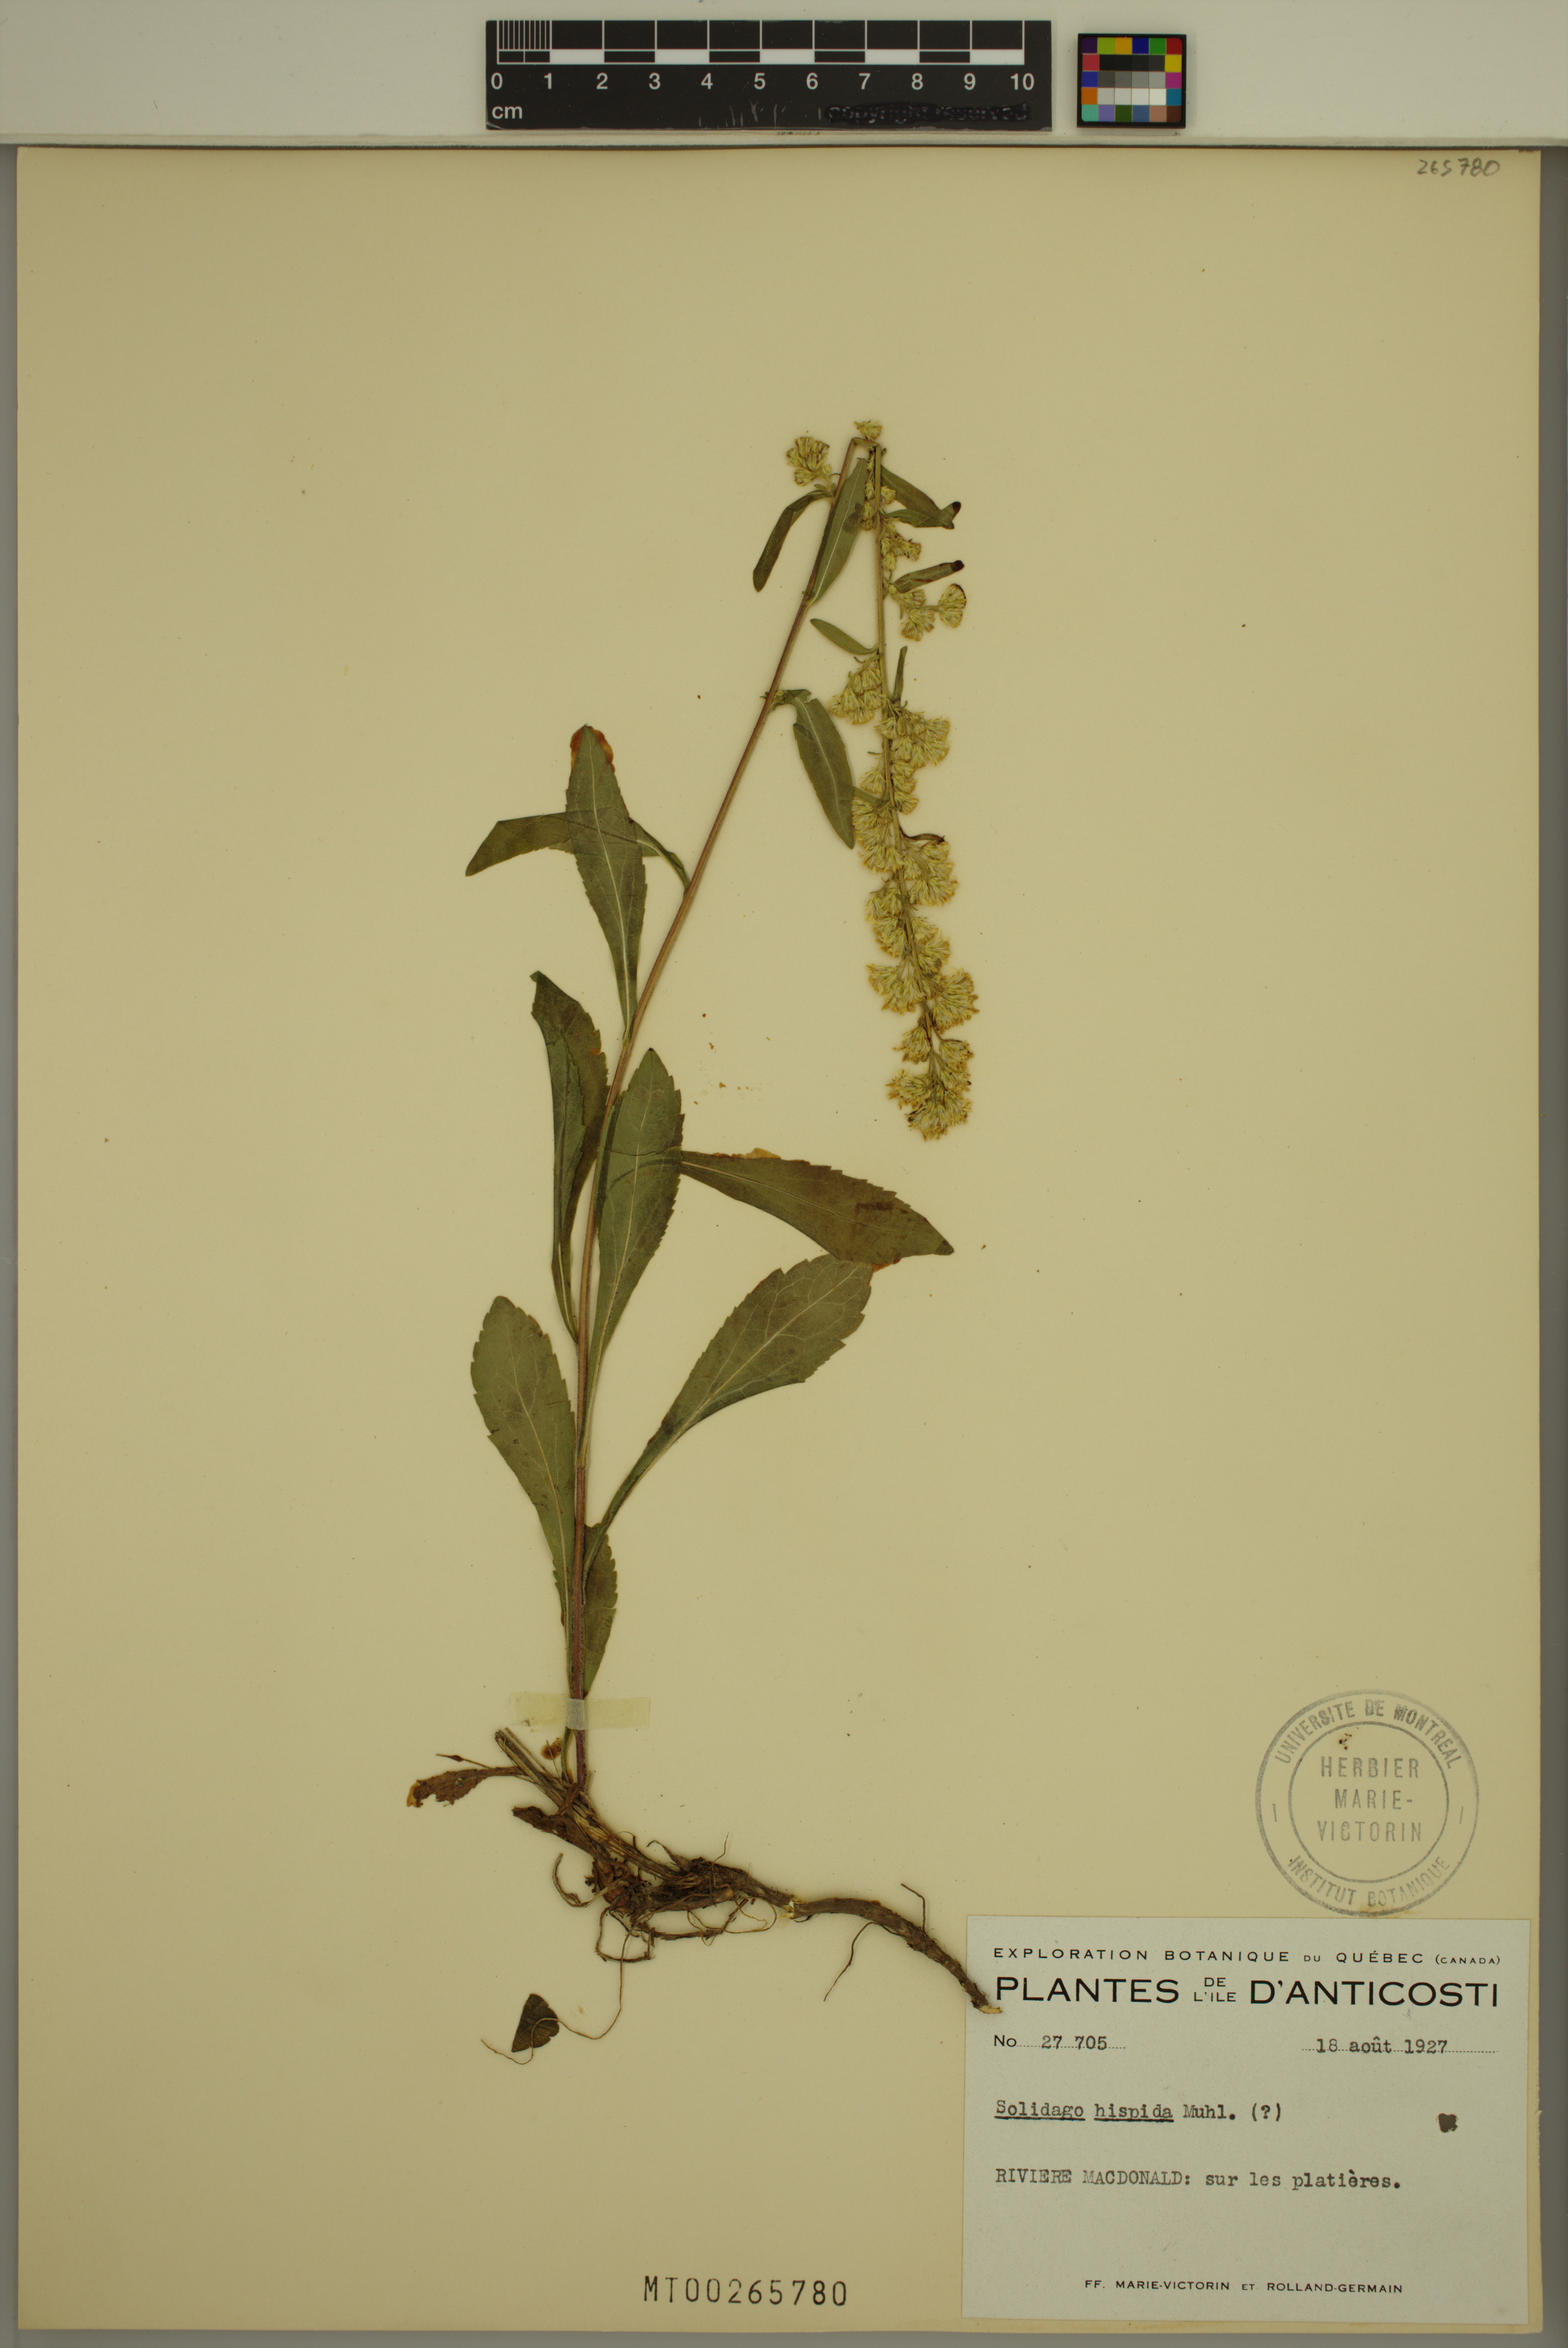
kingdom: Plantae
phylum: Tracheophyta
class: Magnoliopsida
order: Asterales
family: Asteraceae
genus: Solidago
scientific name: Solidago hispida
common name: Hairy goldenrod
